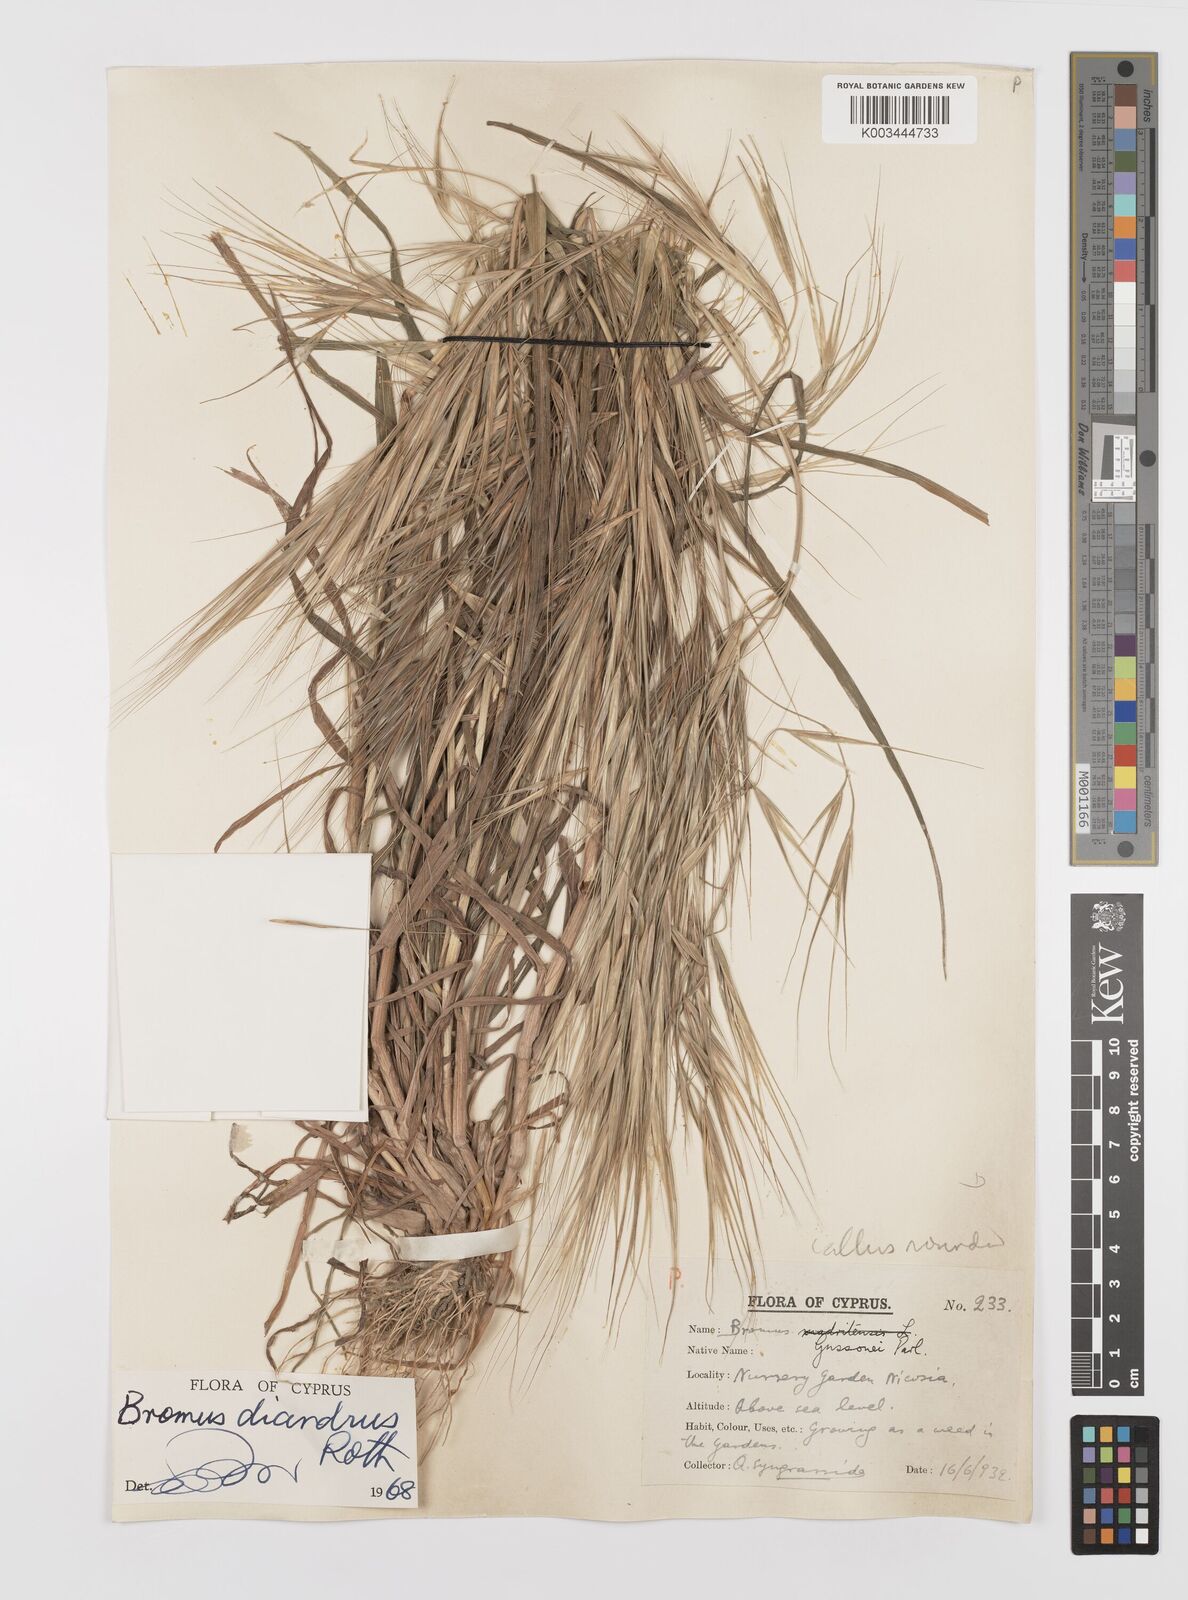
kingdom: Plantae
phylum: Tracheophyta
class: Liliopsida
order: Poales
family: Poaceae
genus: Bromus
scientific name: Bromus diandrus
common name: Ripgut brome
